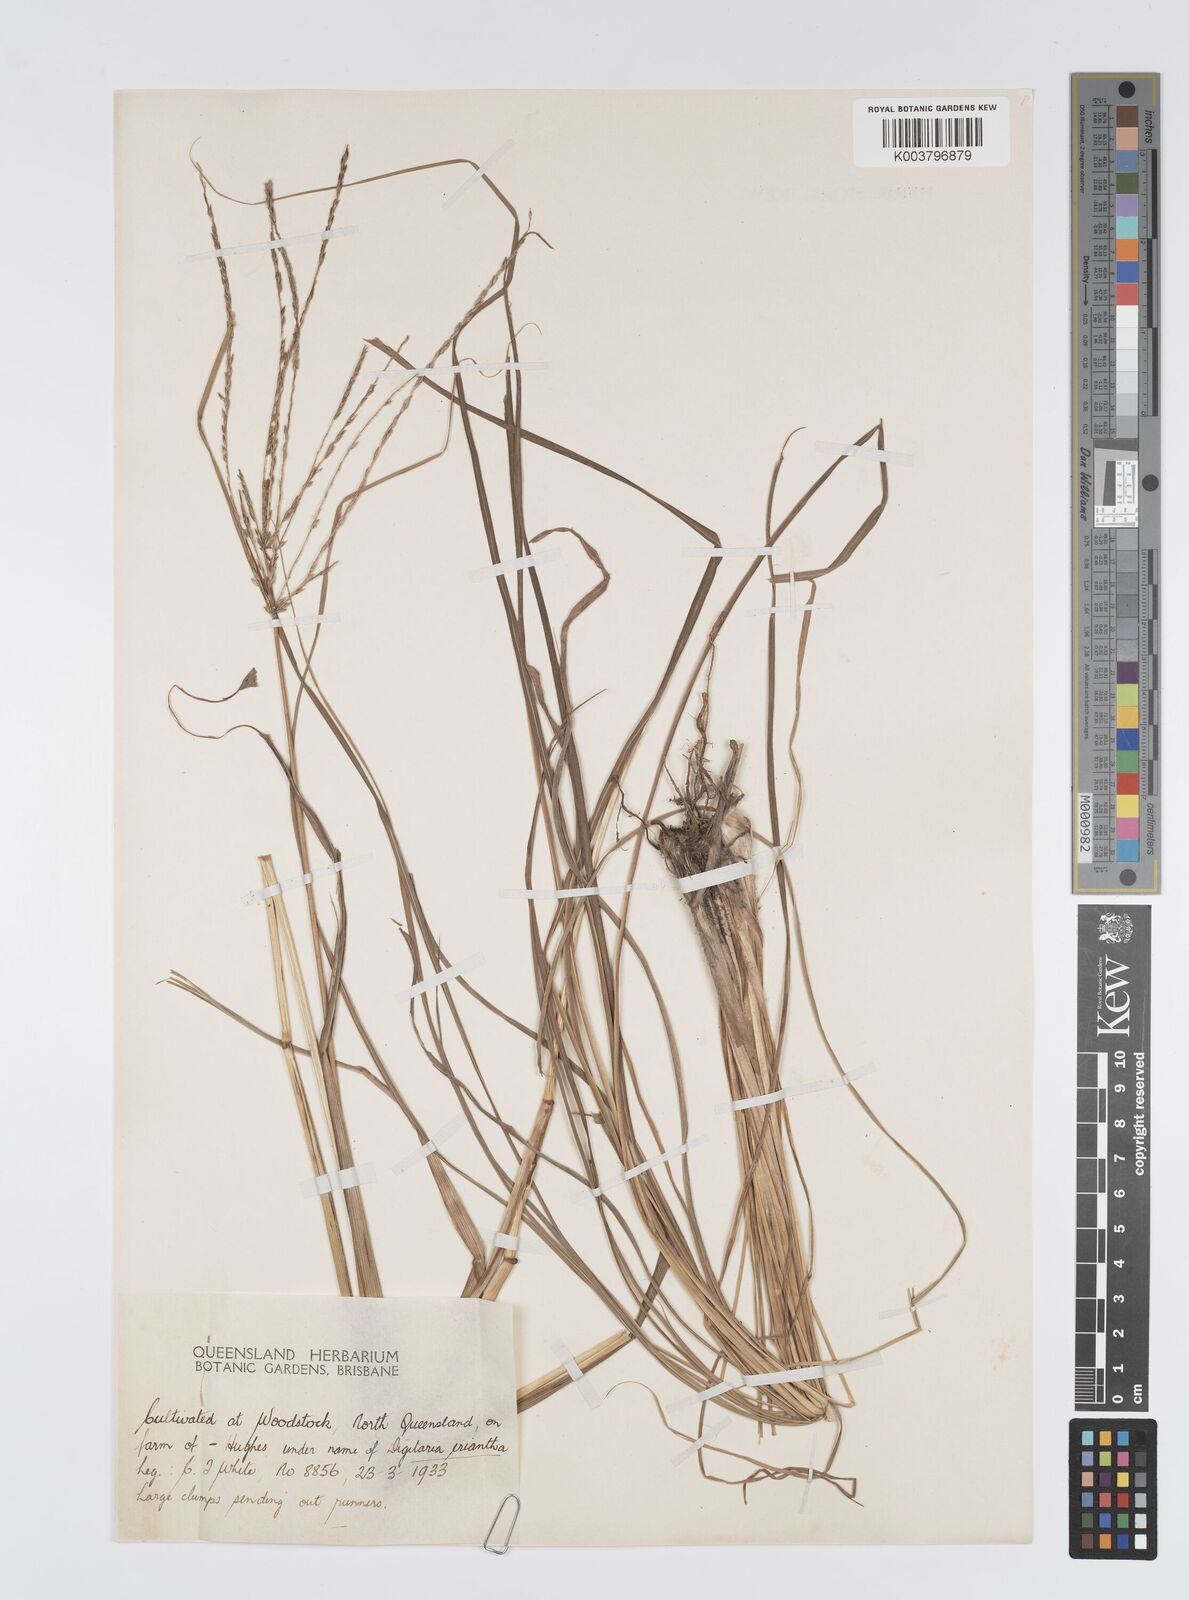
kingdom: Plantae
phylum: Tracheophyta
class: Liliopsida
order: Poales
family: Poaceae
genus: Digitaria
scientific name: Digitaria eriantha
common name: Digitgrass
